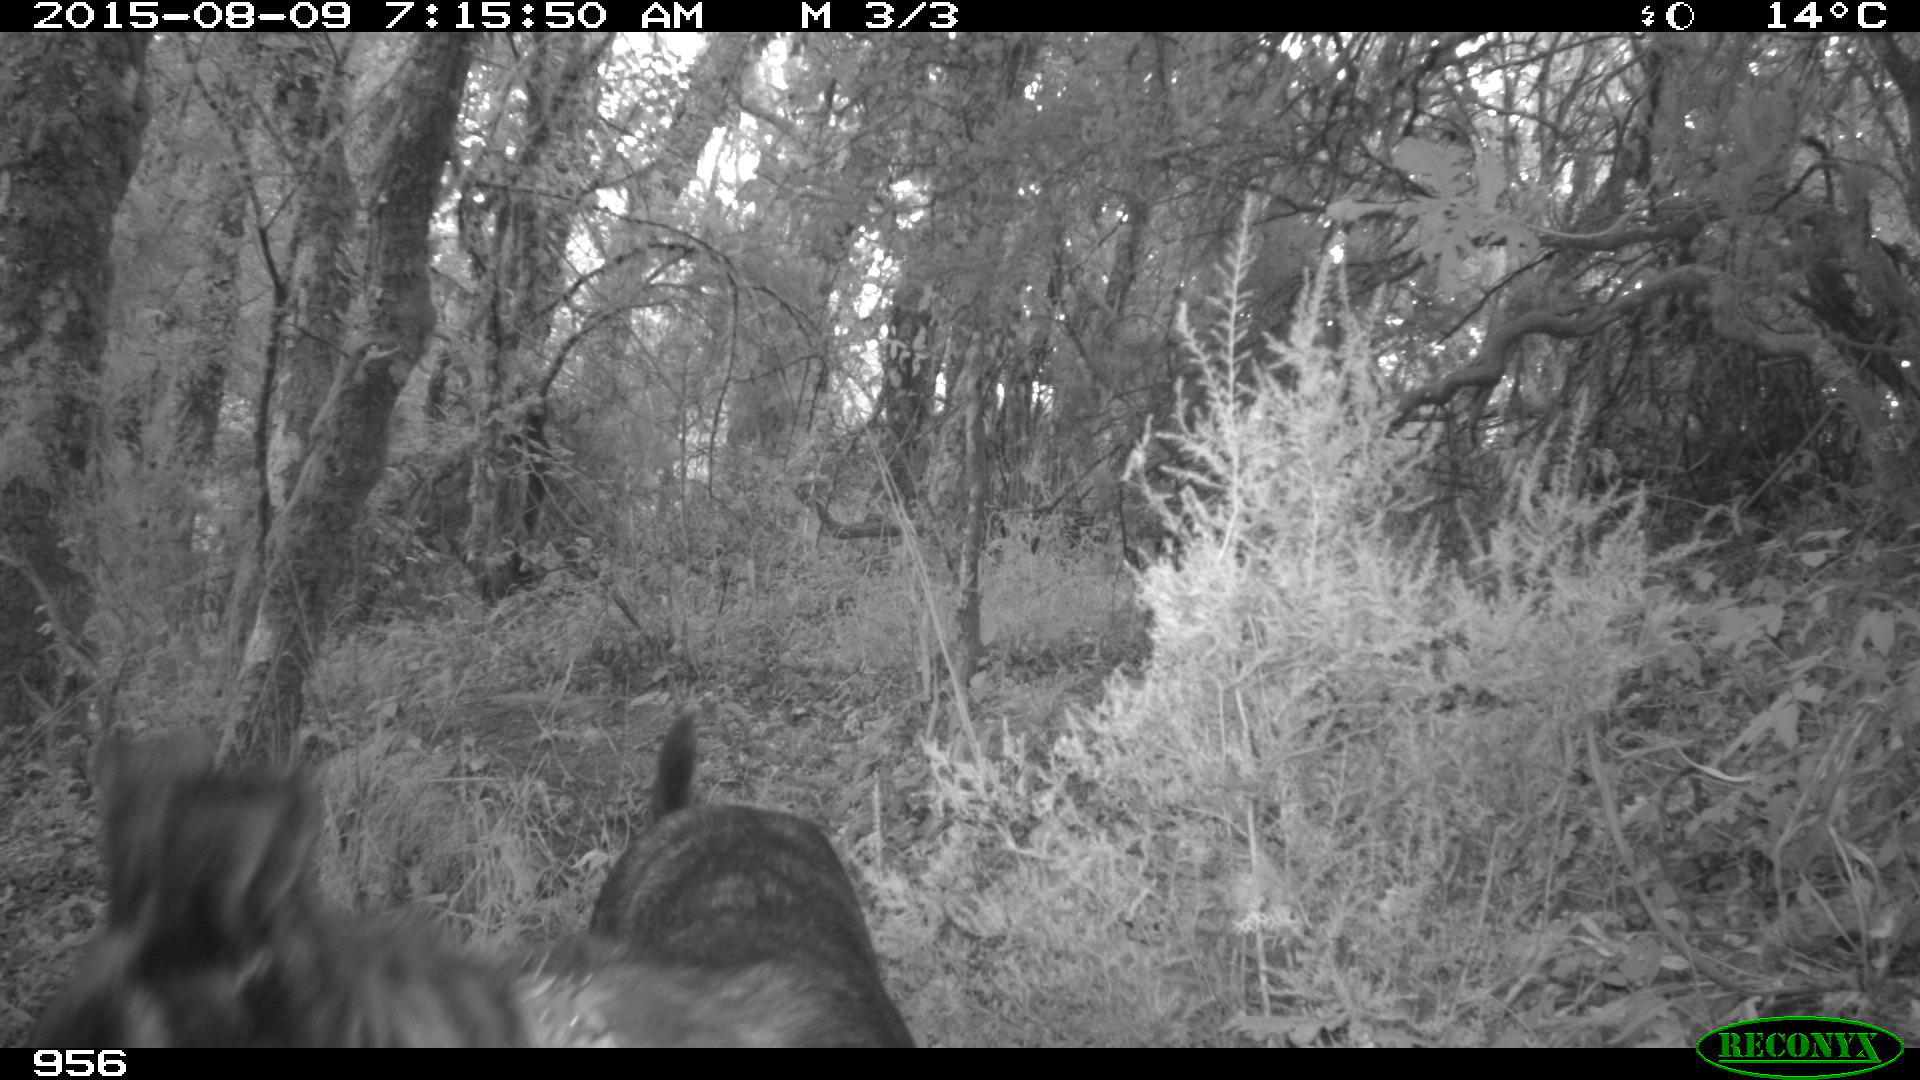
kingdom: Animalia
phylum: Chordata
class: Mammalia
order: Carnivora
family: Canidae
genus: Canis
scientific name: Canis lupus
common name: Gray wolf
